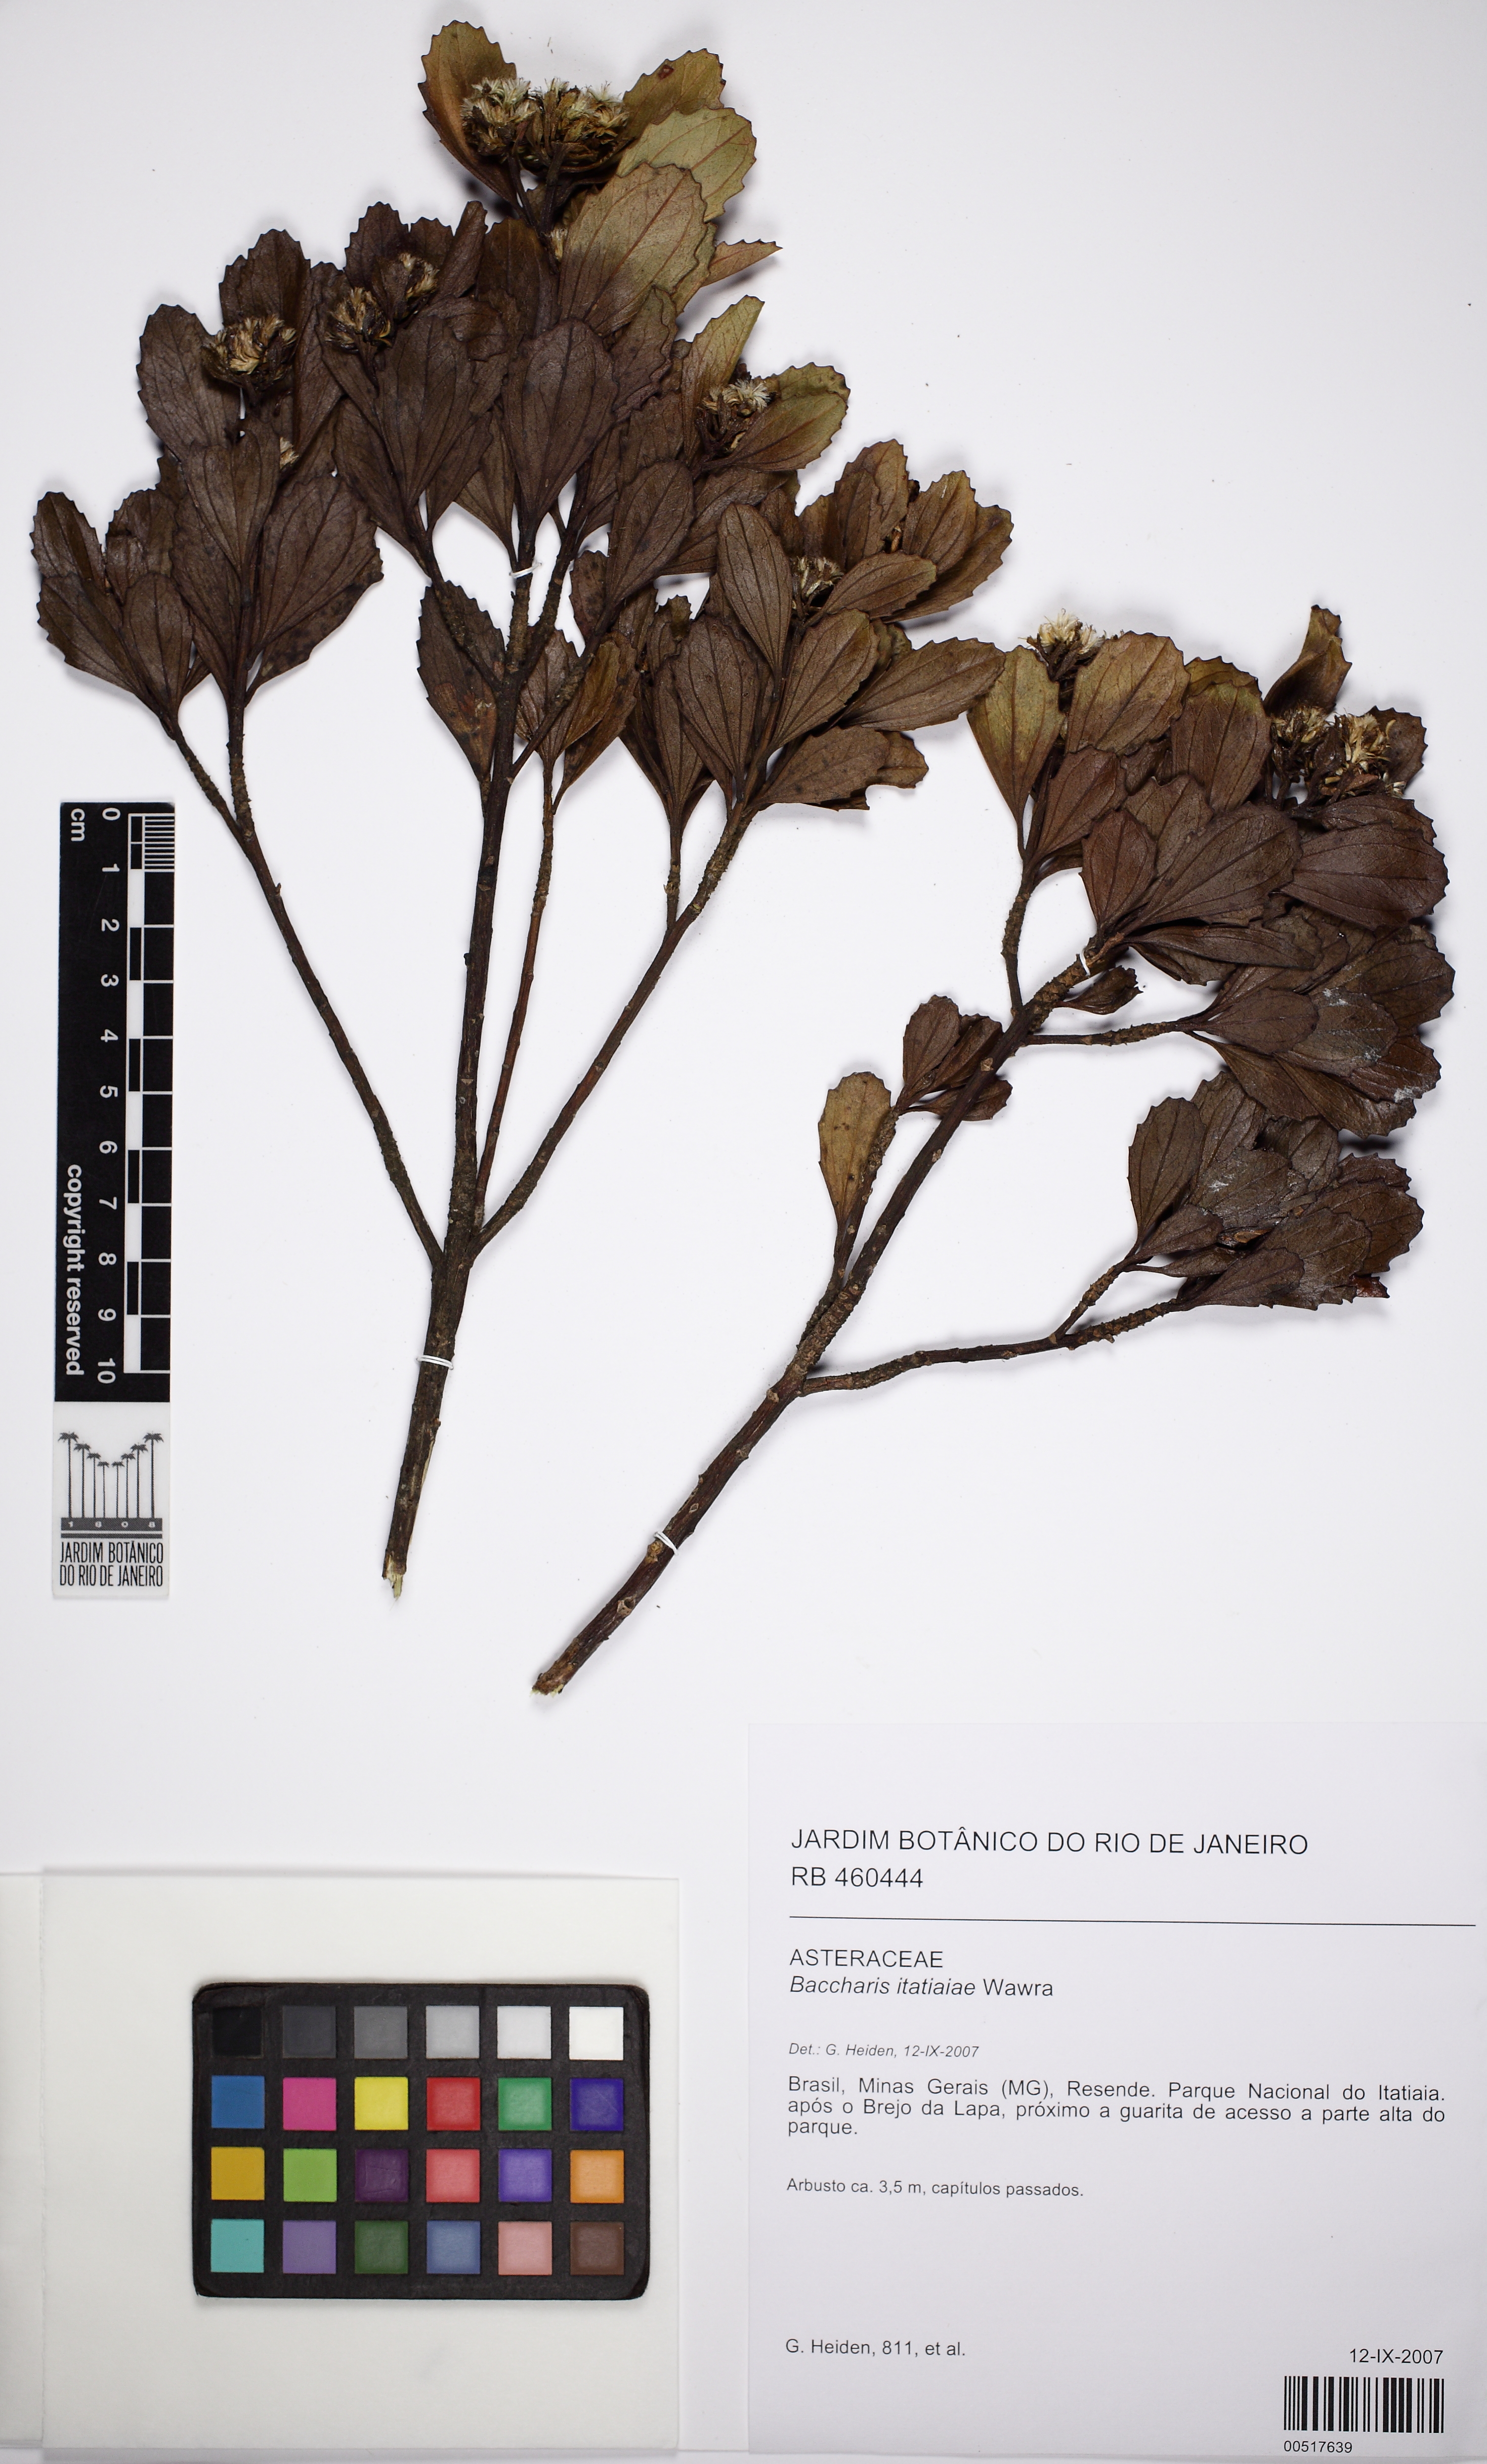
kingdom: Plantae
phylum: Tracheophyta
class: Magnoliopsida
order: Asterales
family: Asteraceae
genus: Baccharis
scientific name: Baccharis itatiaiae
